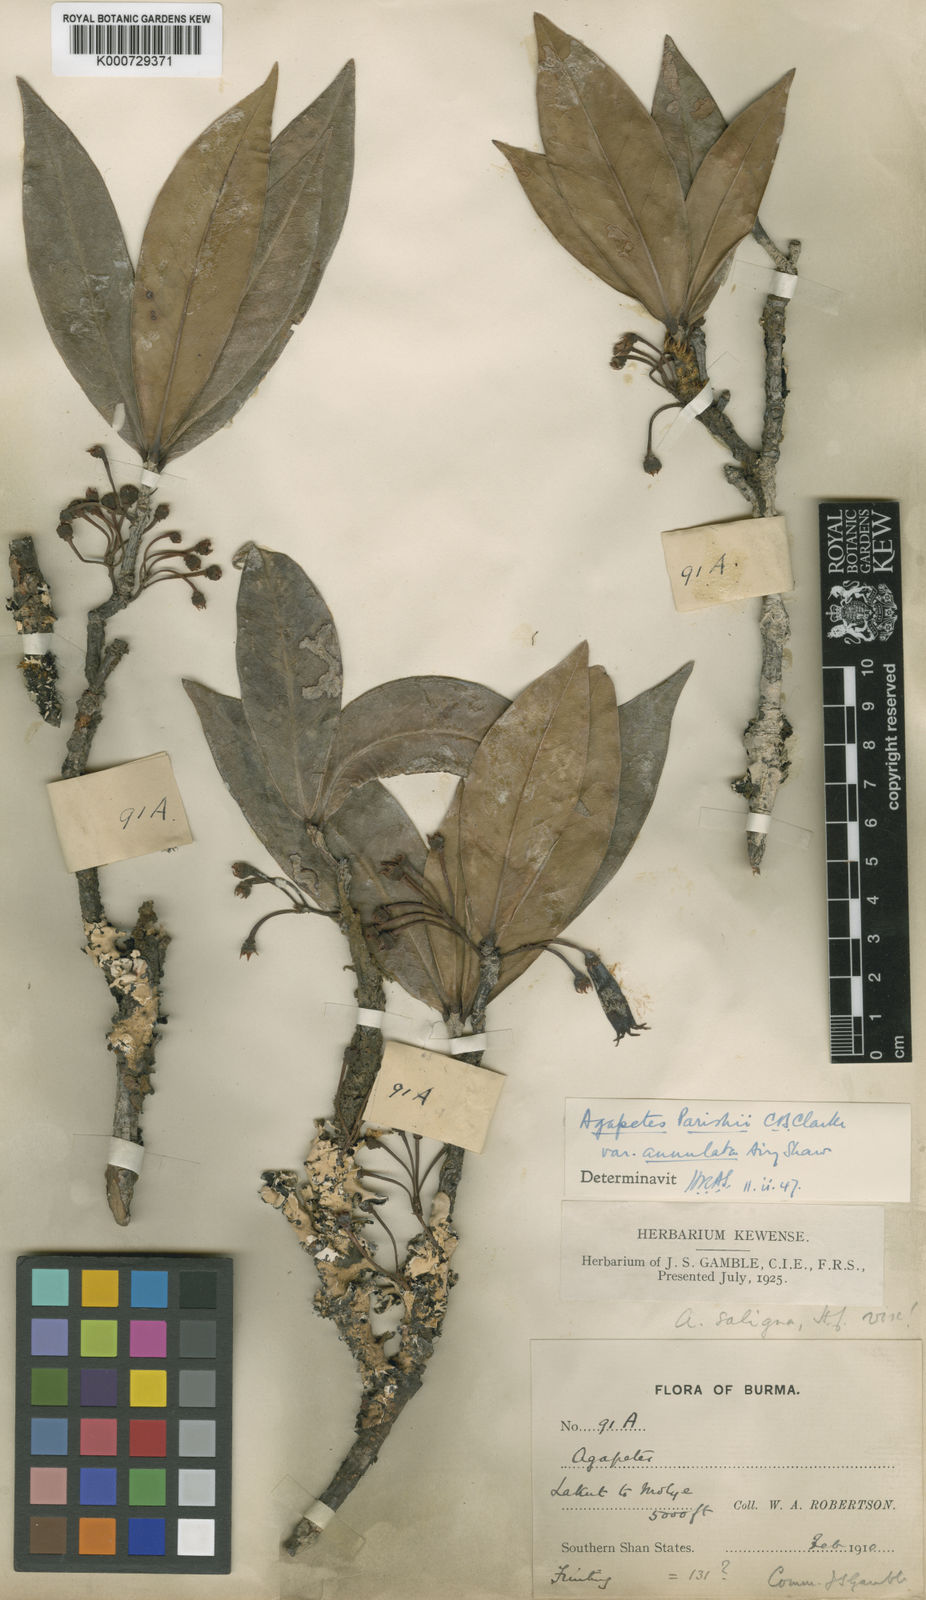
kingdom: Plantae
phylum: Tracheophyta
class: Magnoliopsida
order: Ericales
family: Ericaceae
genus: Agapetes
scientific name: Agapetes parishii
